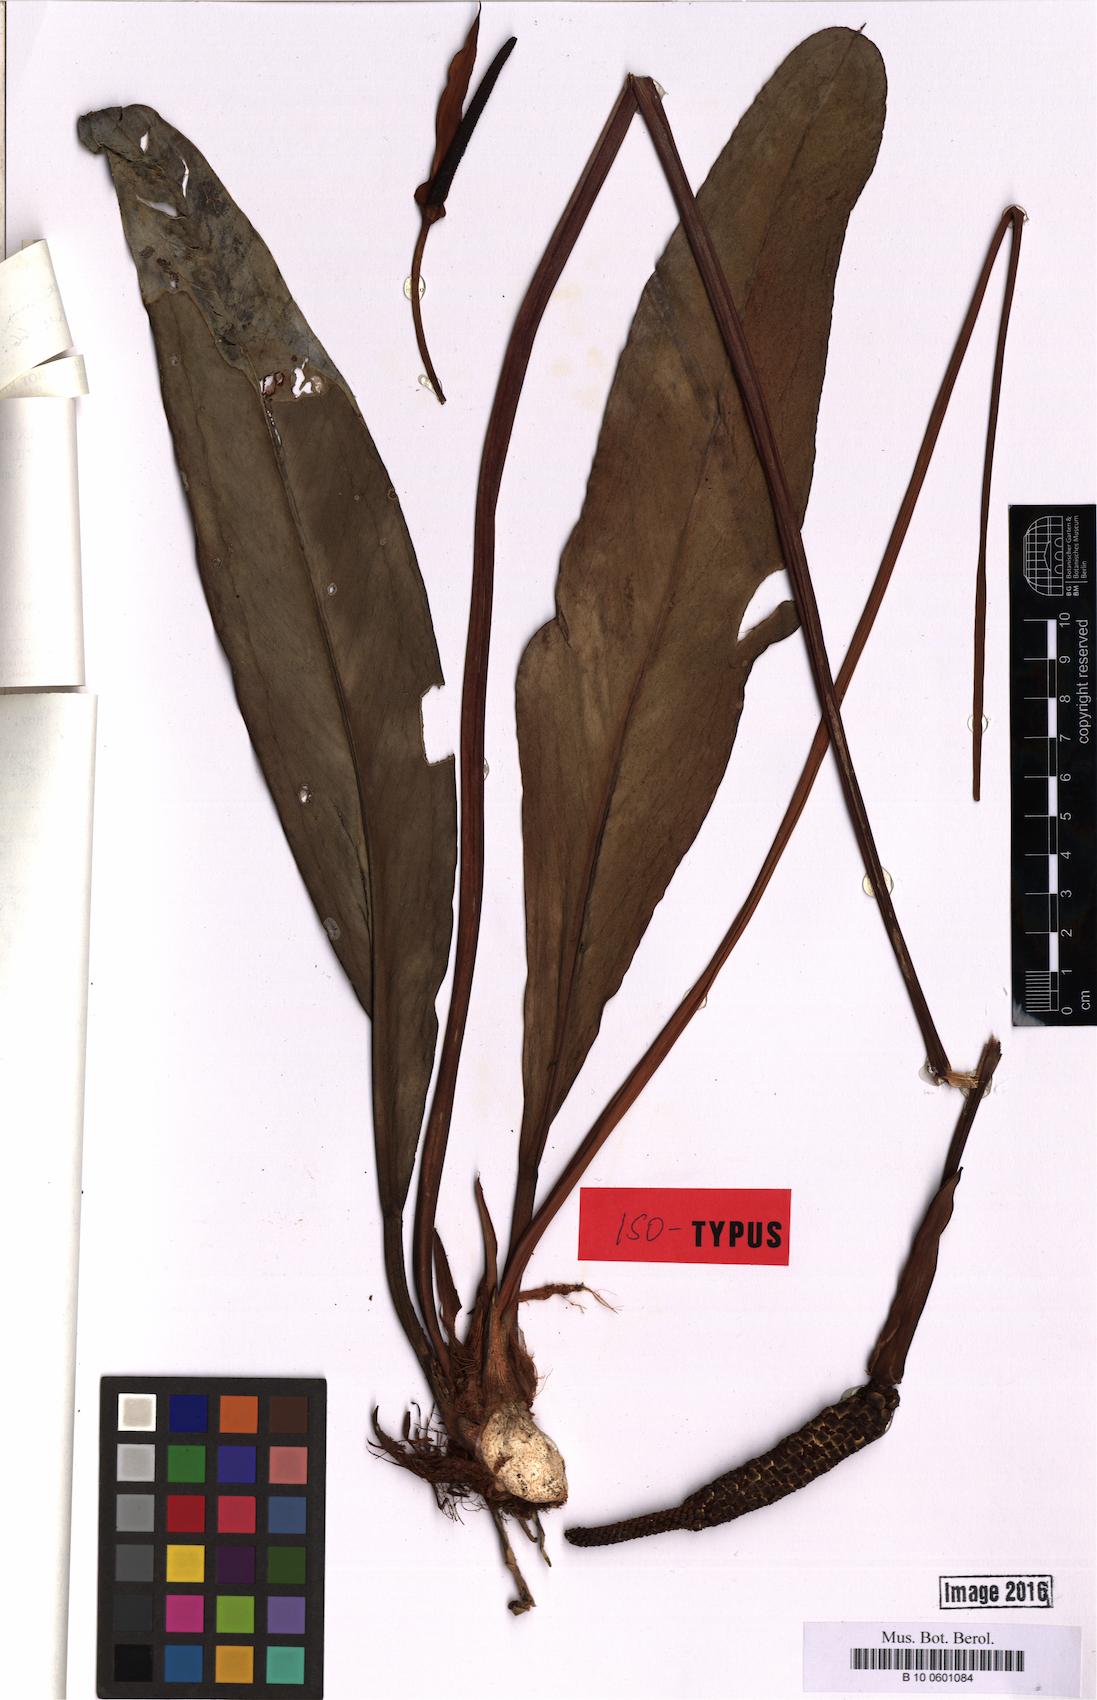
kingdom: Plantae
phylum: Tracheophyta
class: Liliopsida
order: Alismatales
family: Araceae
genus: Anthurium
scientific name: Anthurium talmonii
